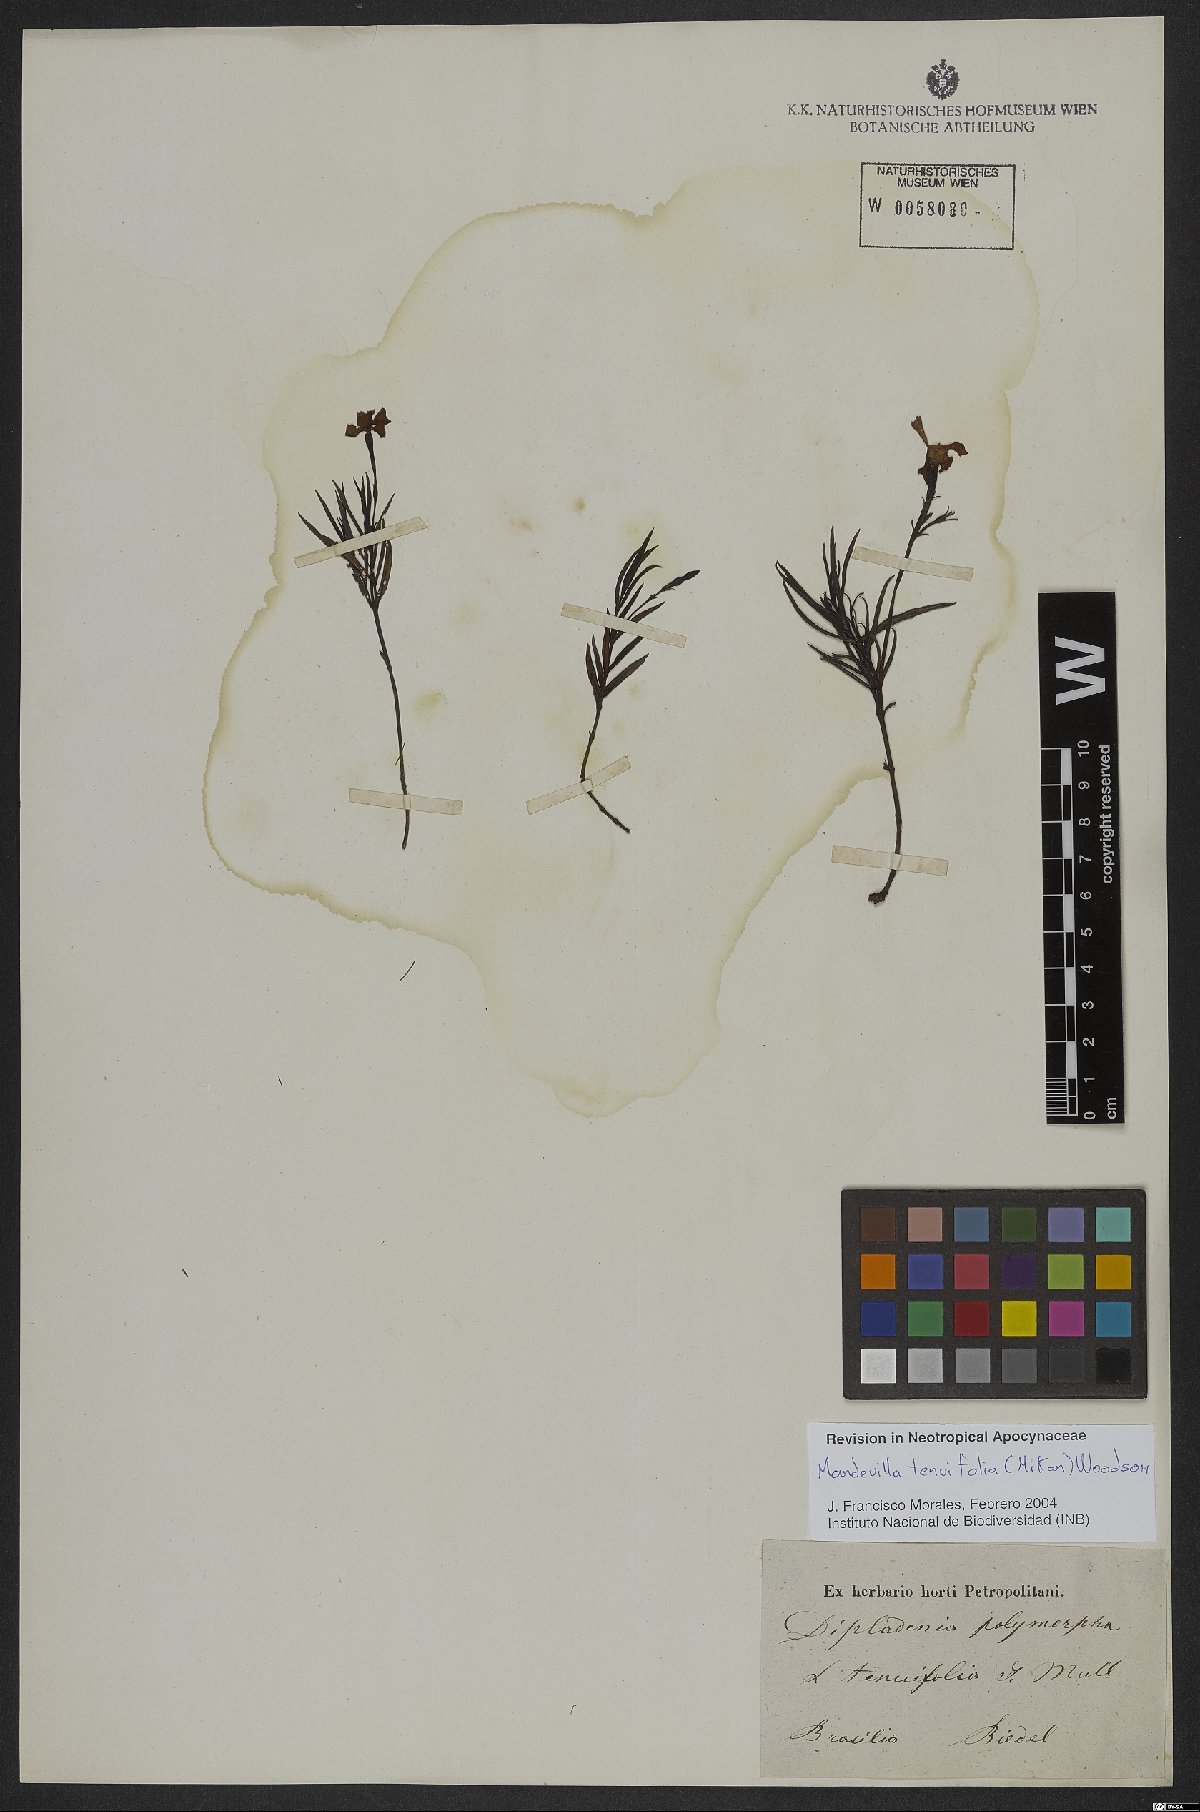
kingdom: Plantae
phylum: Tracheophyta
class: Magnoliopsida
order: Gentianales
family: Apocynaceae
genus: Mandevilla
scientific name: Mandevilla tenuifolia
